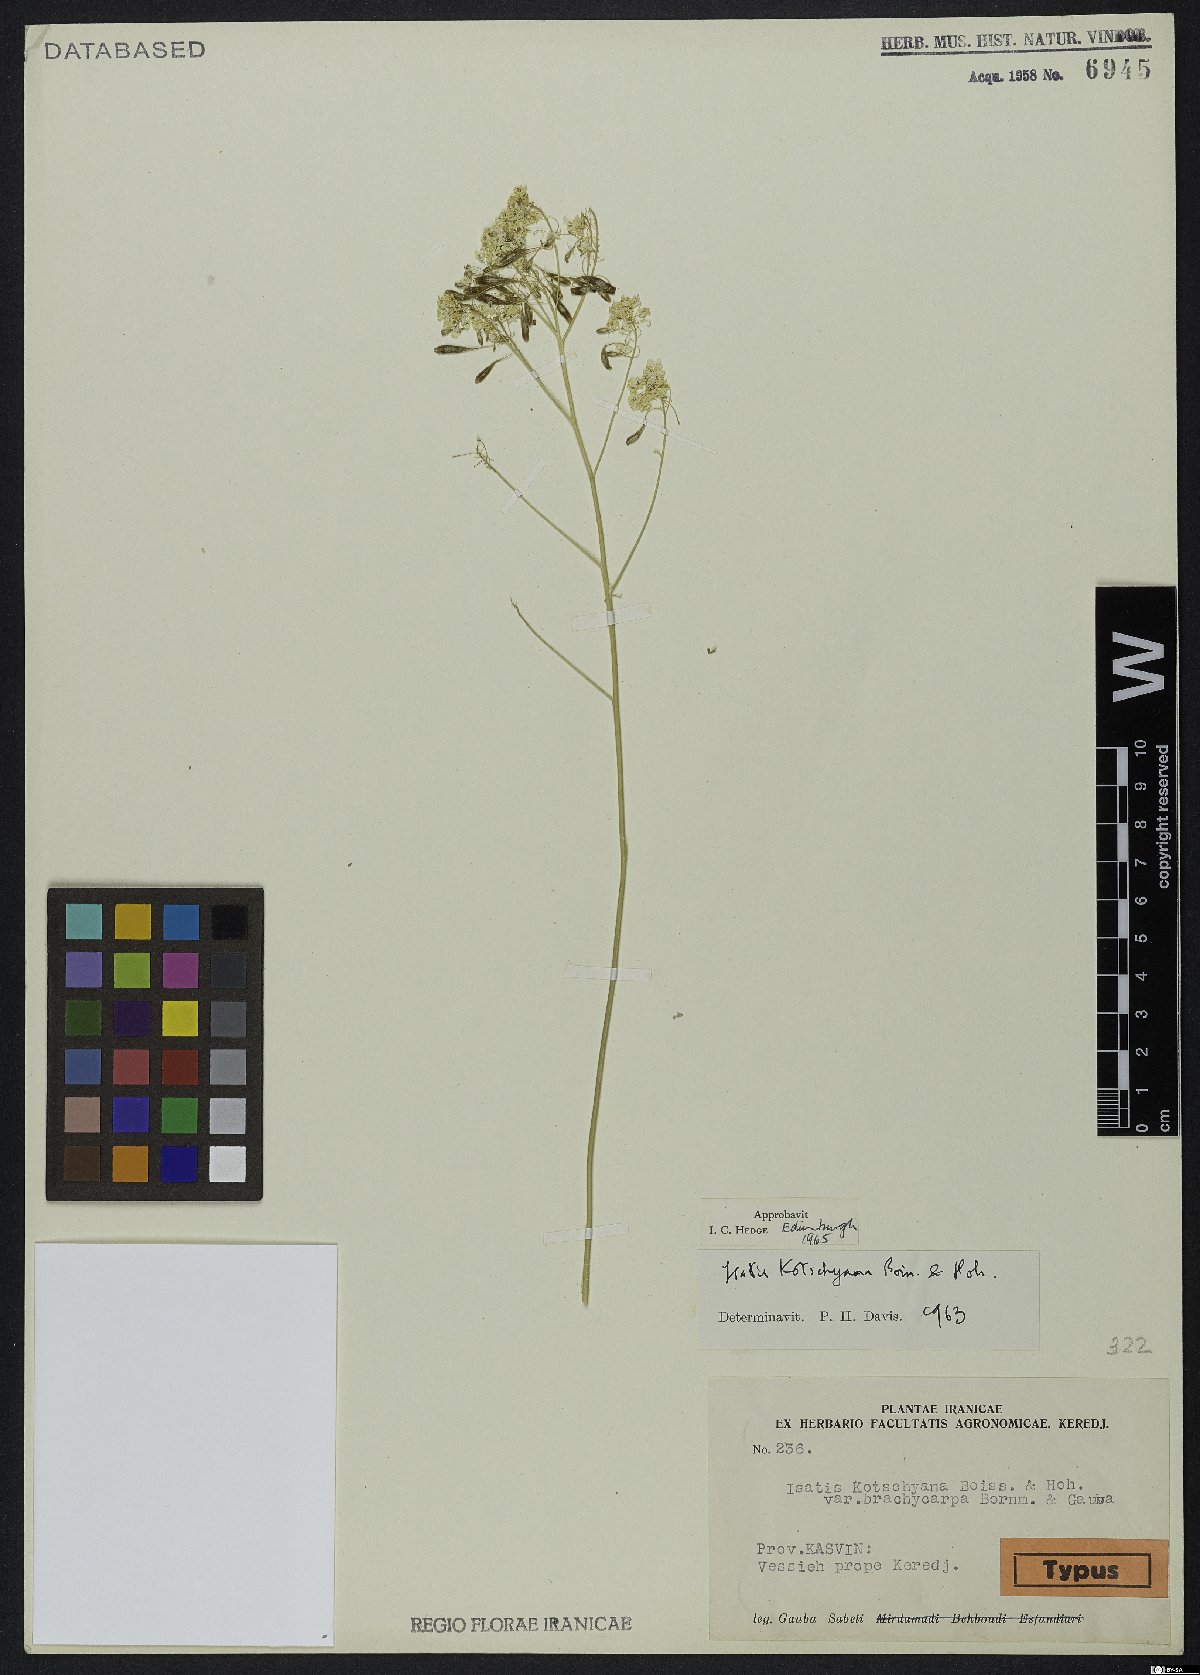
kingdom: Plantae
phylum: Tracheophyta
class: Magnoliopsida
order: Brassicales
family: Brassicaceae
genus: Isatis
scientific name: Isatis kotschyana
